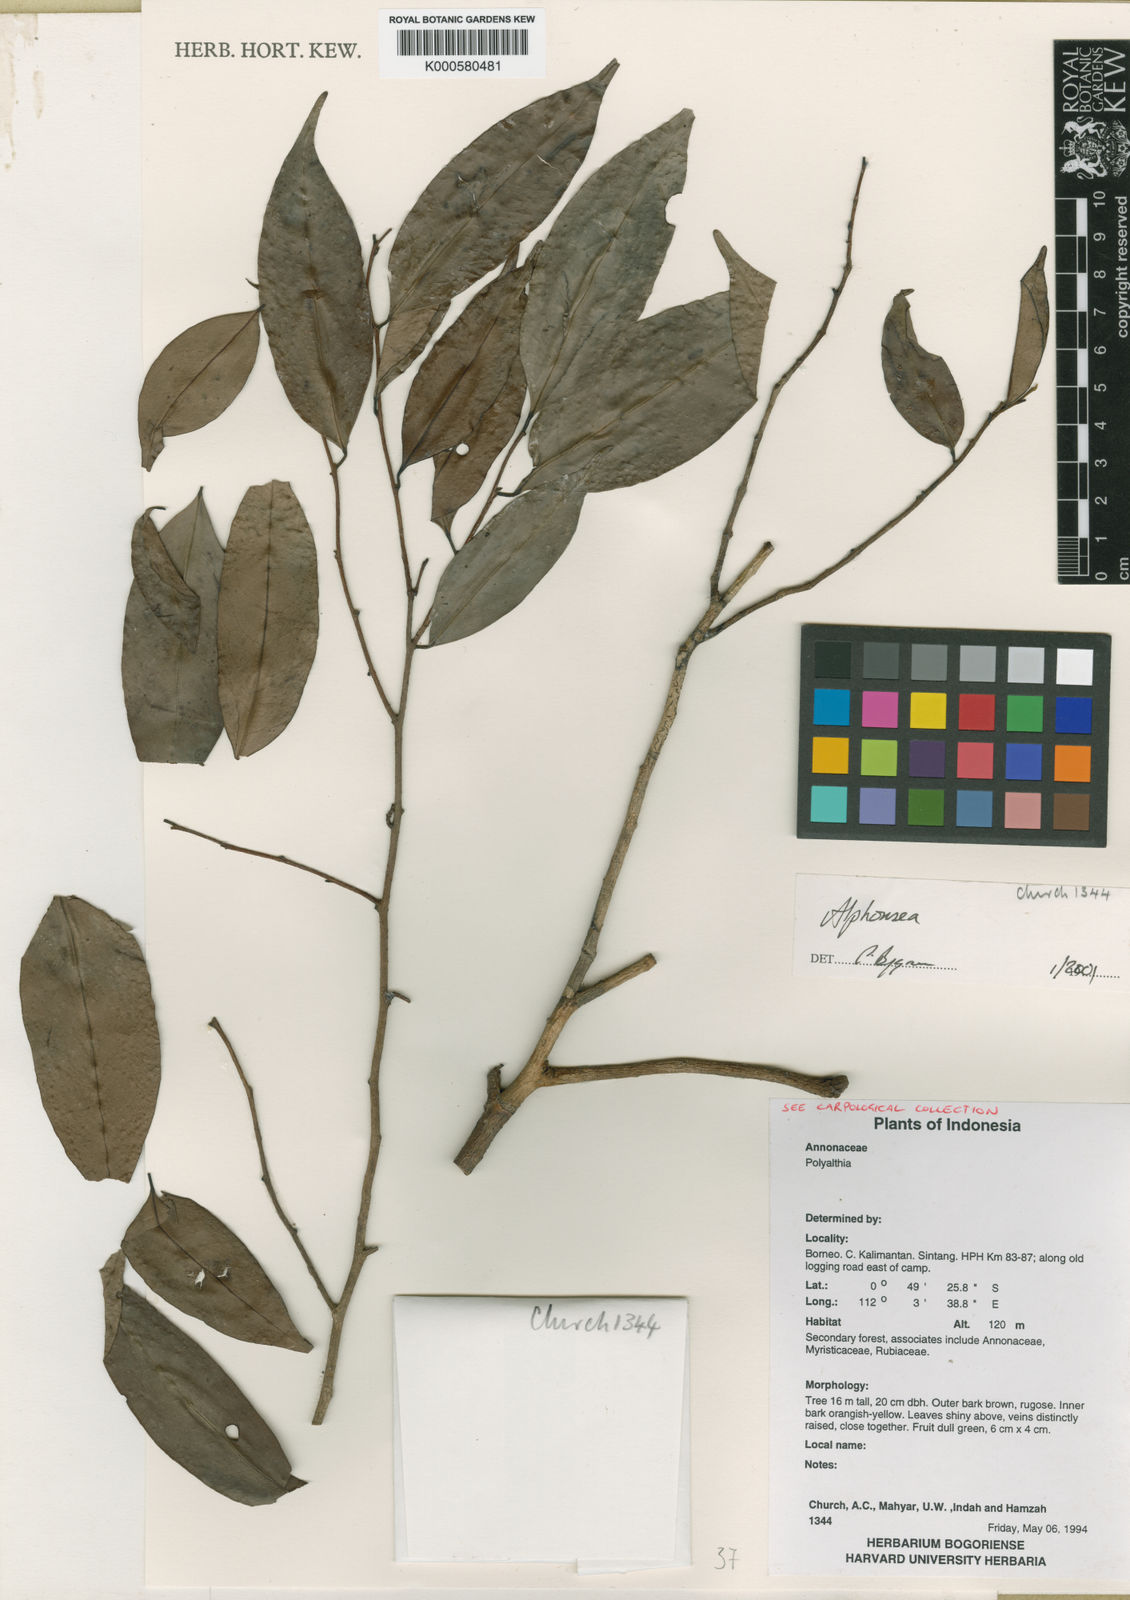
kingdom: Plantae
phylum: Tracheophyta
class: Magnoliopsida
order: Magnoliales
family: Annonaceae
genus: Alphonsea
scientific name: Alphonsea borneensis
